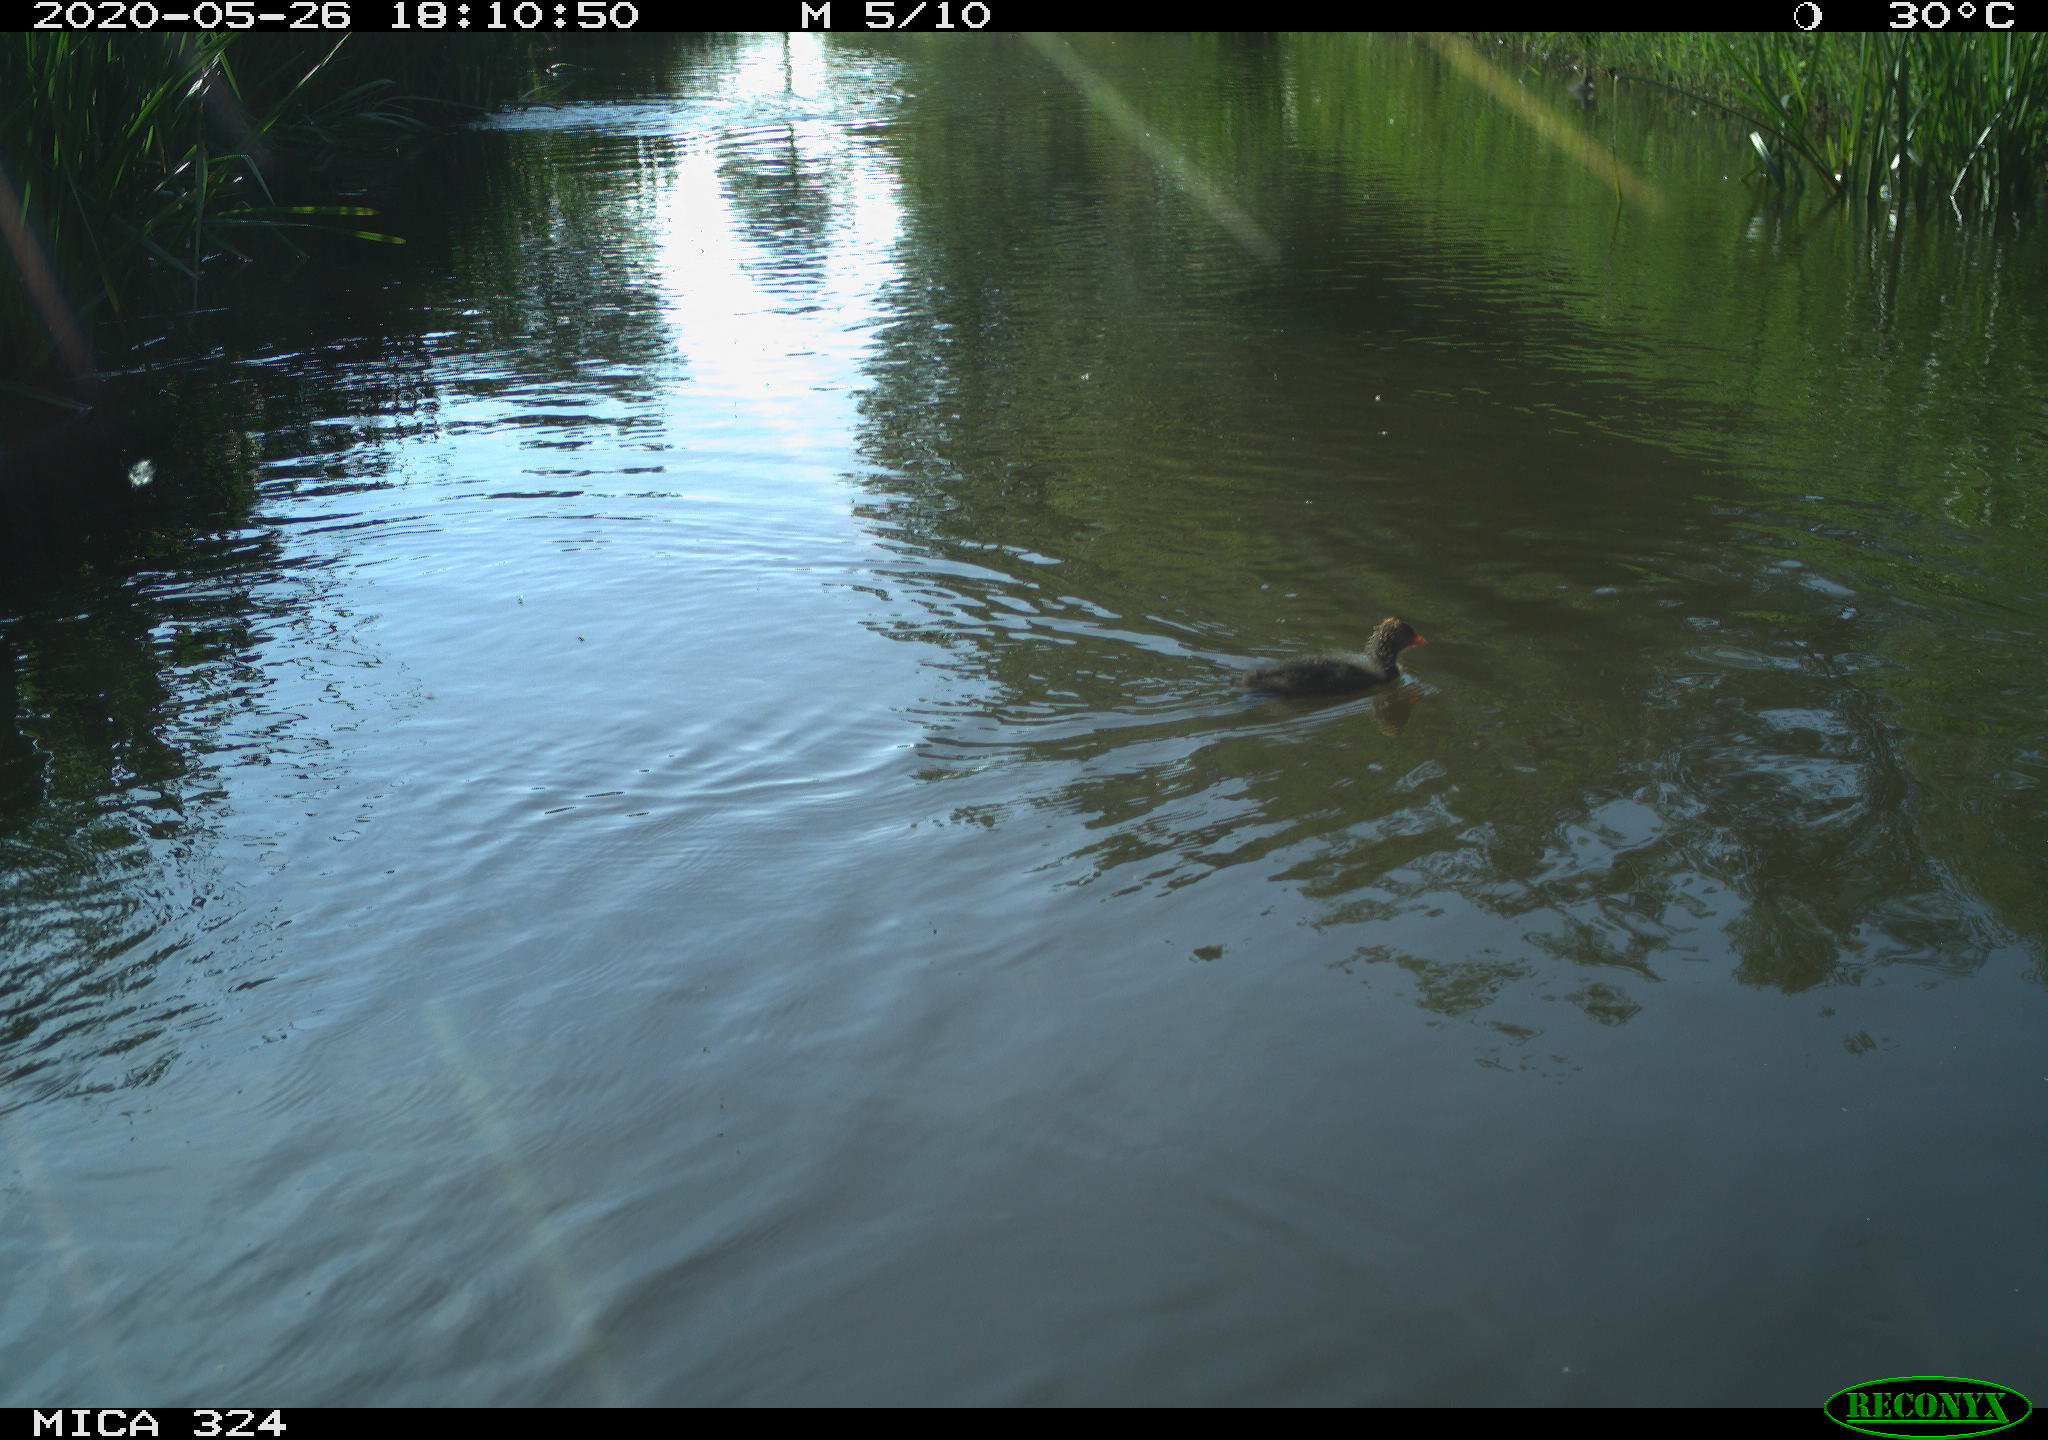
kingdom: Animalia
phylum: Chordata
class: Aves
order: Gruiformes
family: Rallidae
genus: Fulica
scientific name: Fulica atra
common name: Eurasian coot
